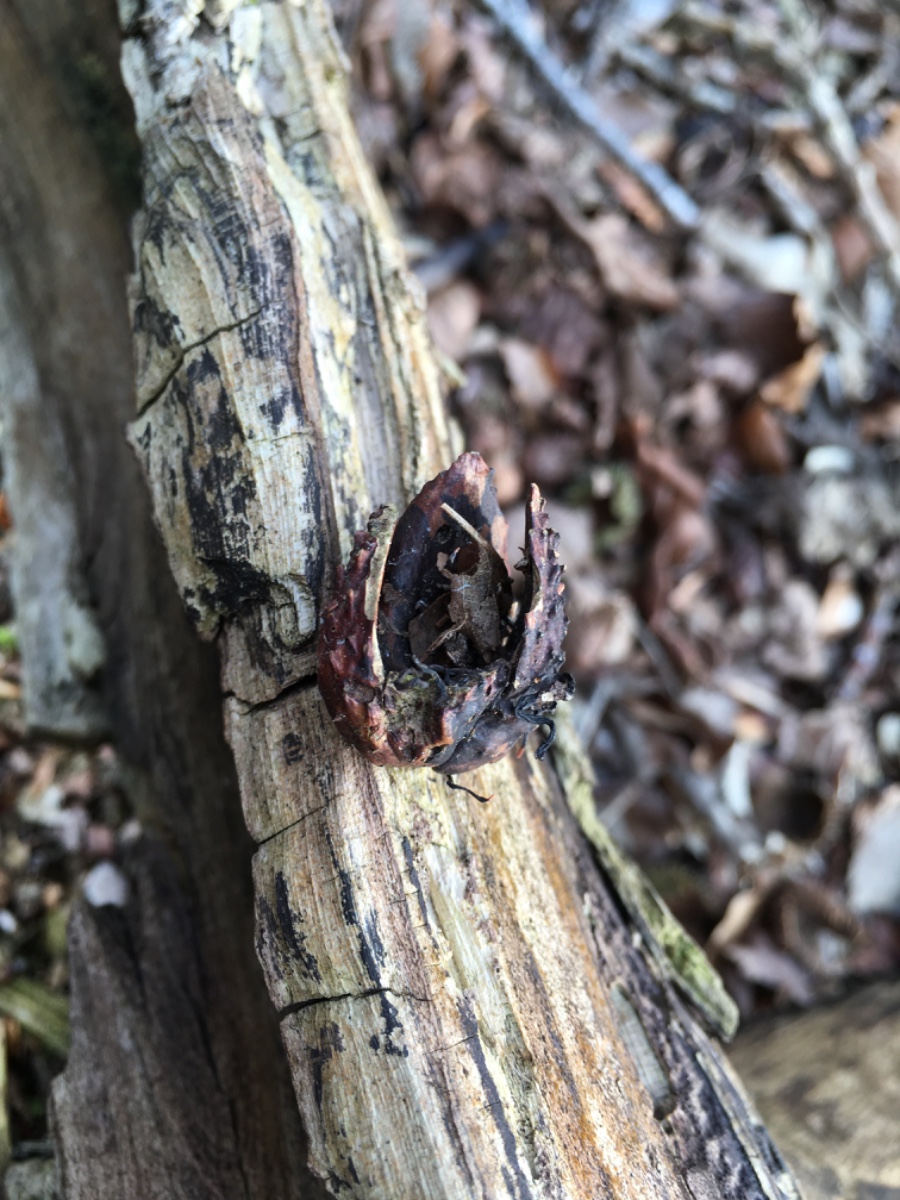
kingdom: Fungi
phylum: Ascomycota
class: Sordariomycetes
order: Xylariales
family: Xylariaceae
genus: Xylaria
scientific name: Xylaria carpophila
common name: bogskål-stødsvamp
